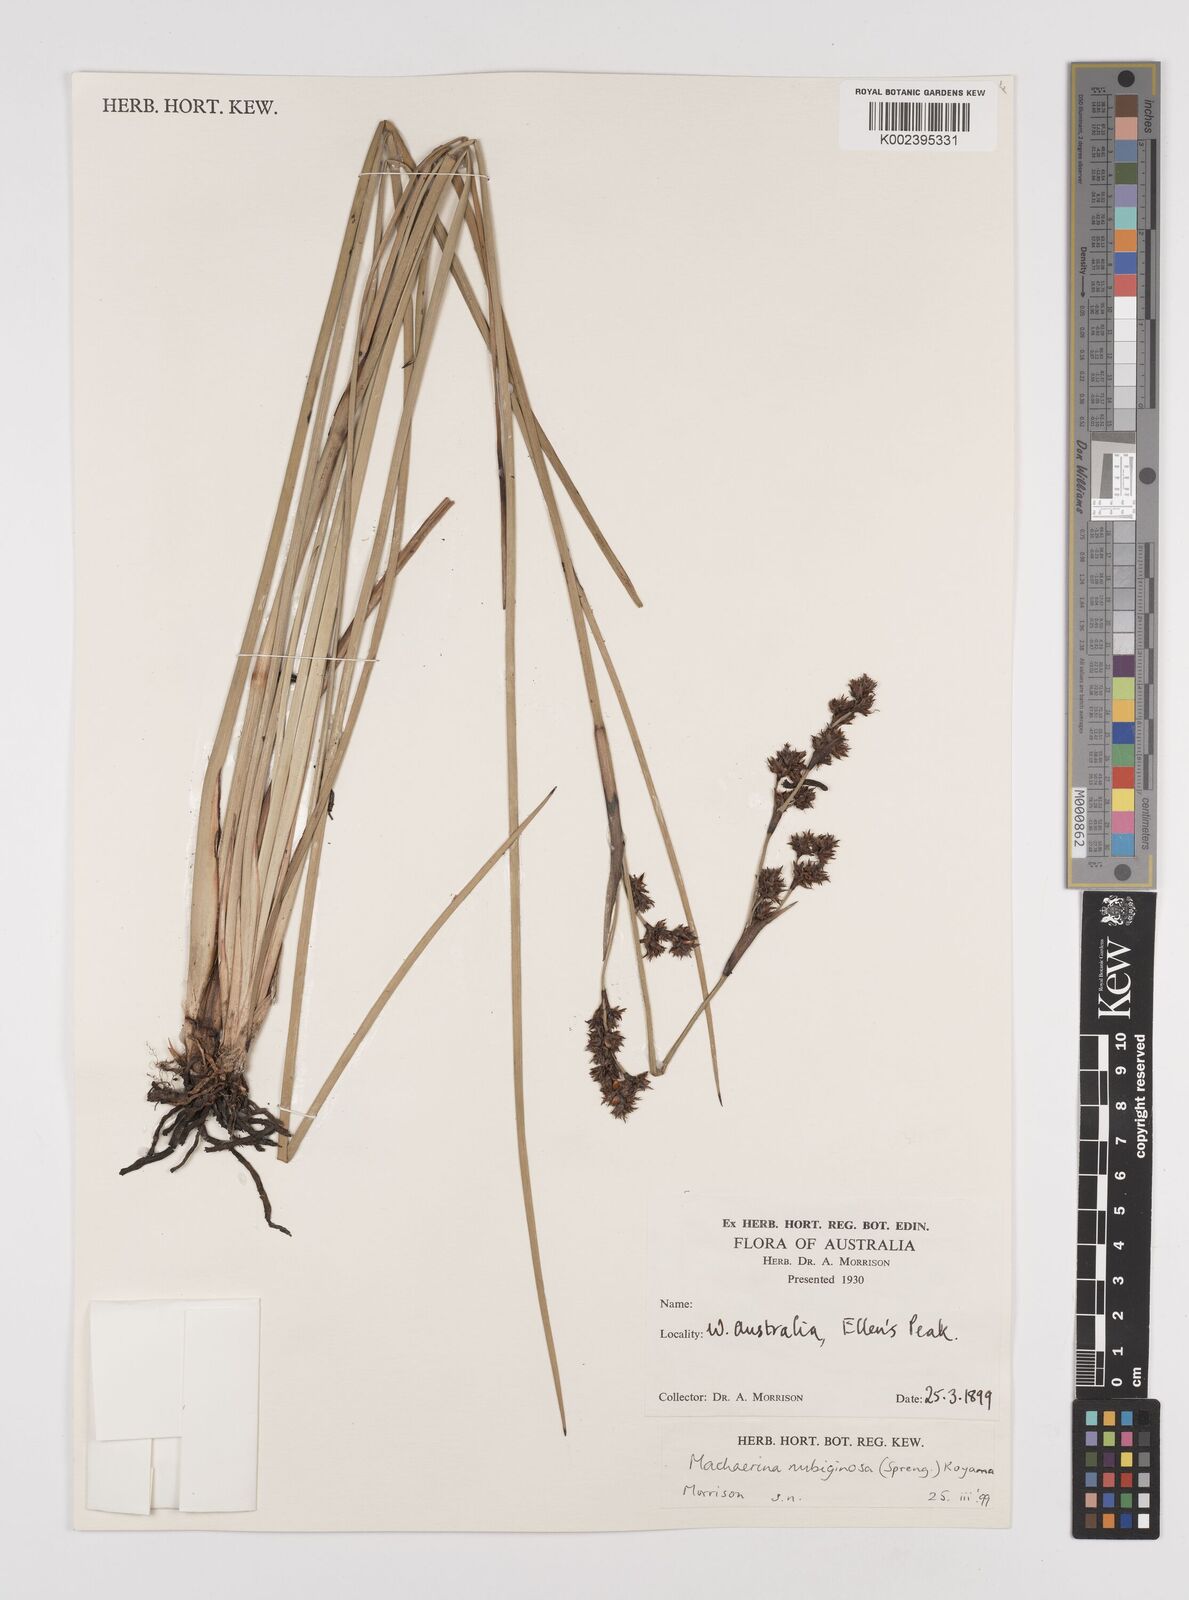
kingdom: Plantae
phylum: Tracheophyta
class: Liliopsida
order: Poales
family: Cyperaceae
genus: Machaerina
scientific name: Machaerina rubiginosa
